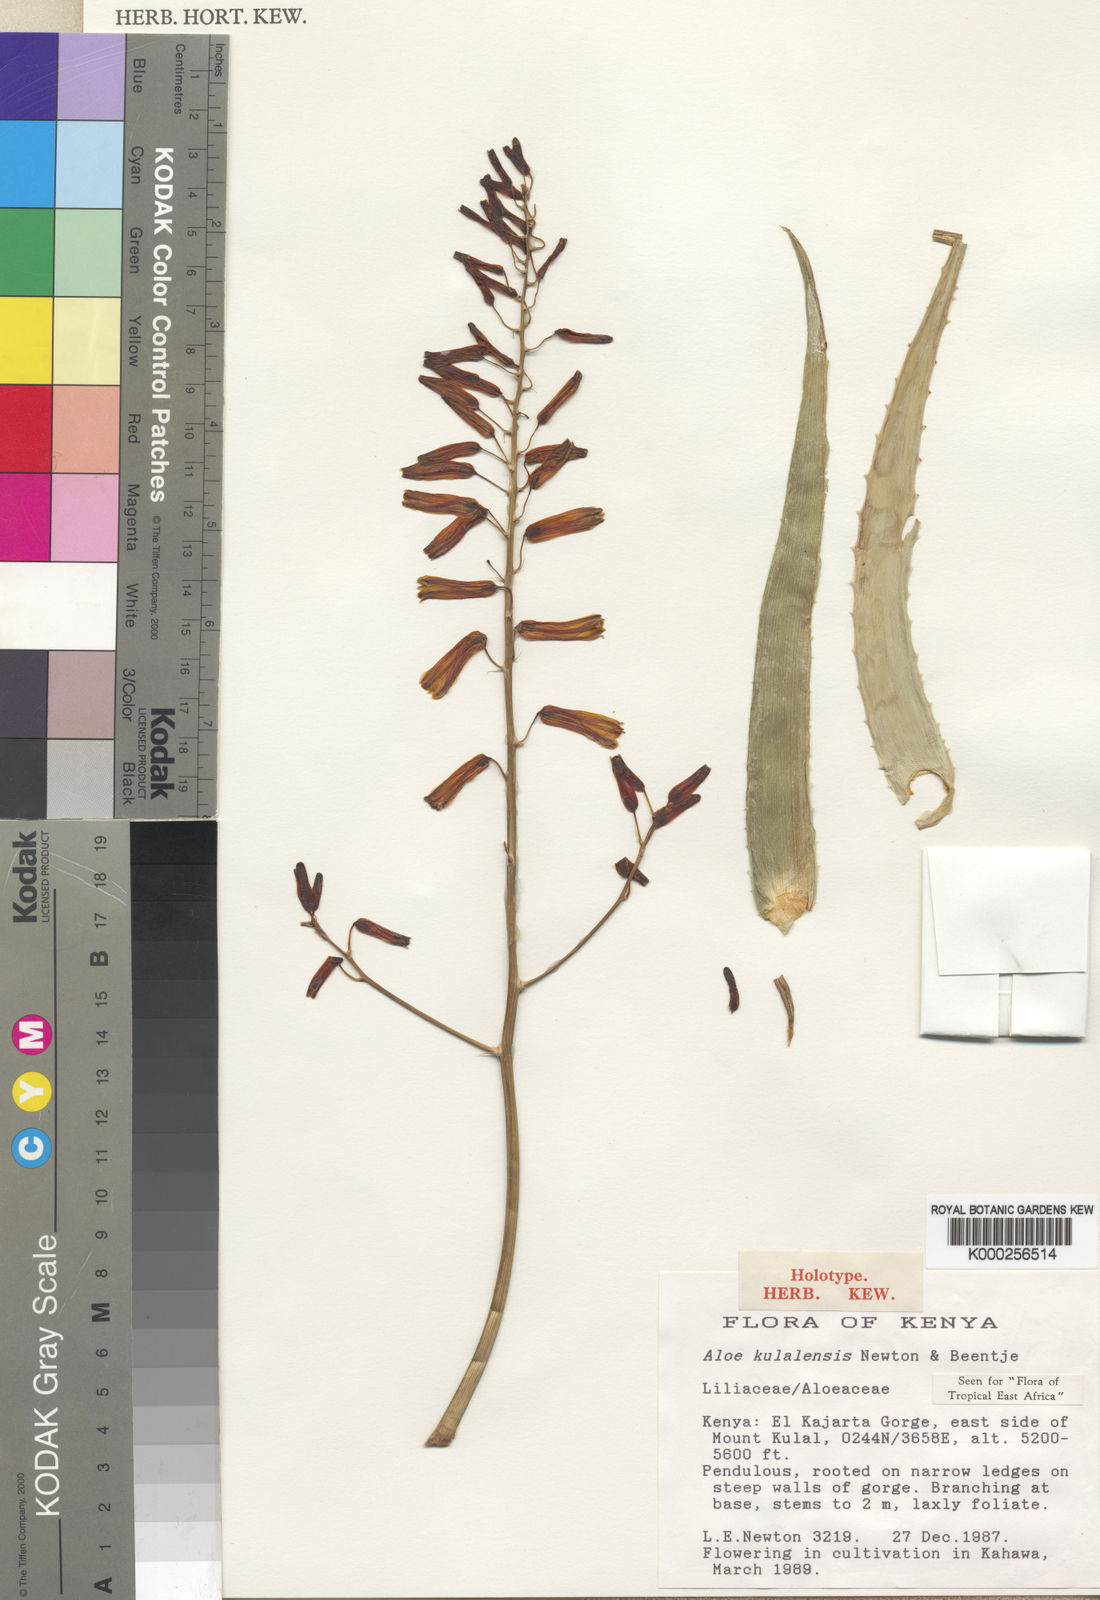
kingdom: Plantae
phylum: Tracheophyta
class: Liliopsida
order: Asparagales
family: Asphodelaceae
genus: Aloe
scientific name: Aloe kulalensis
